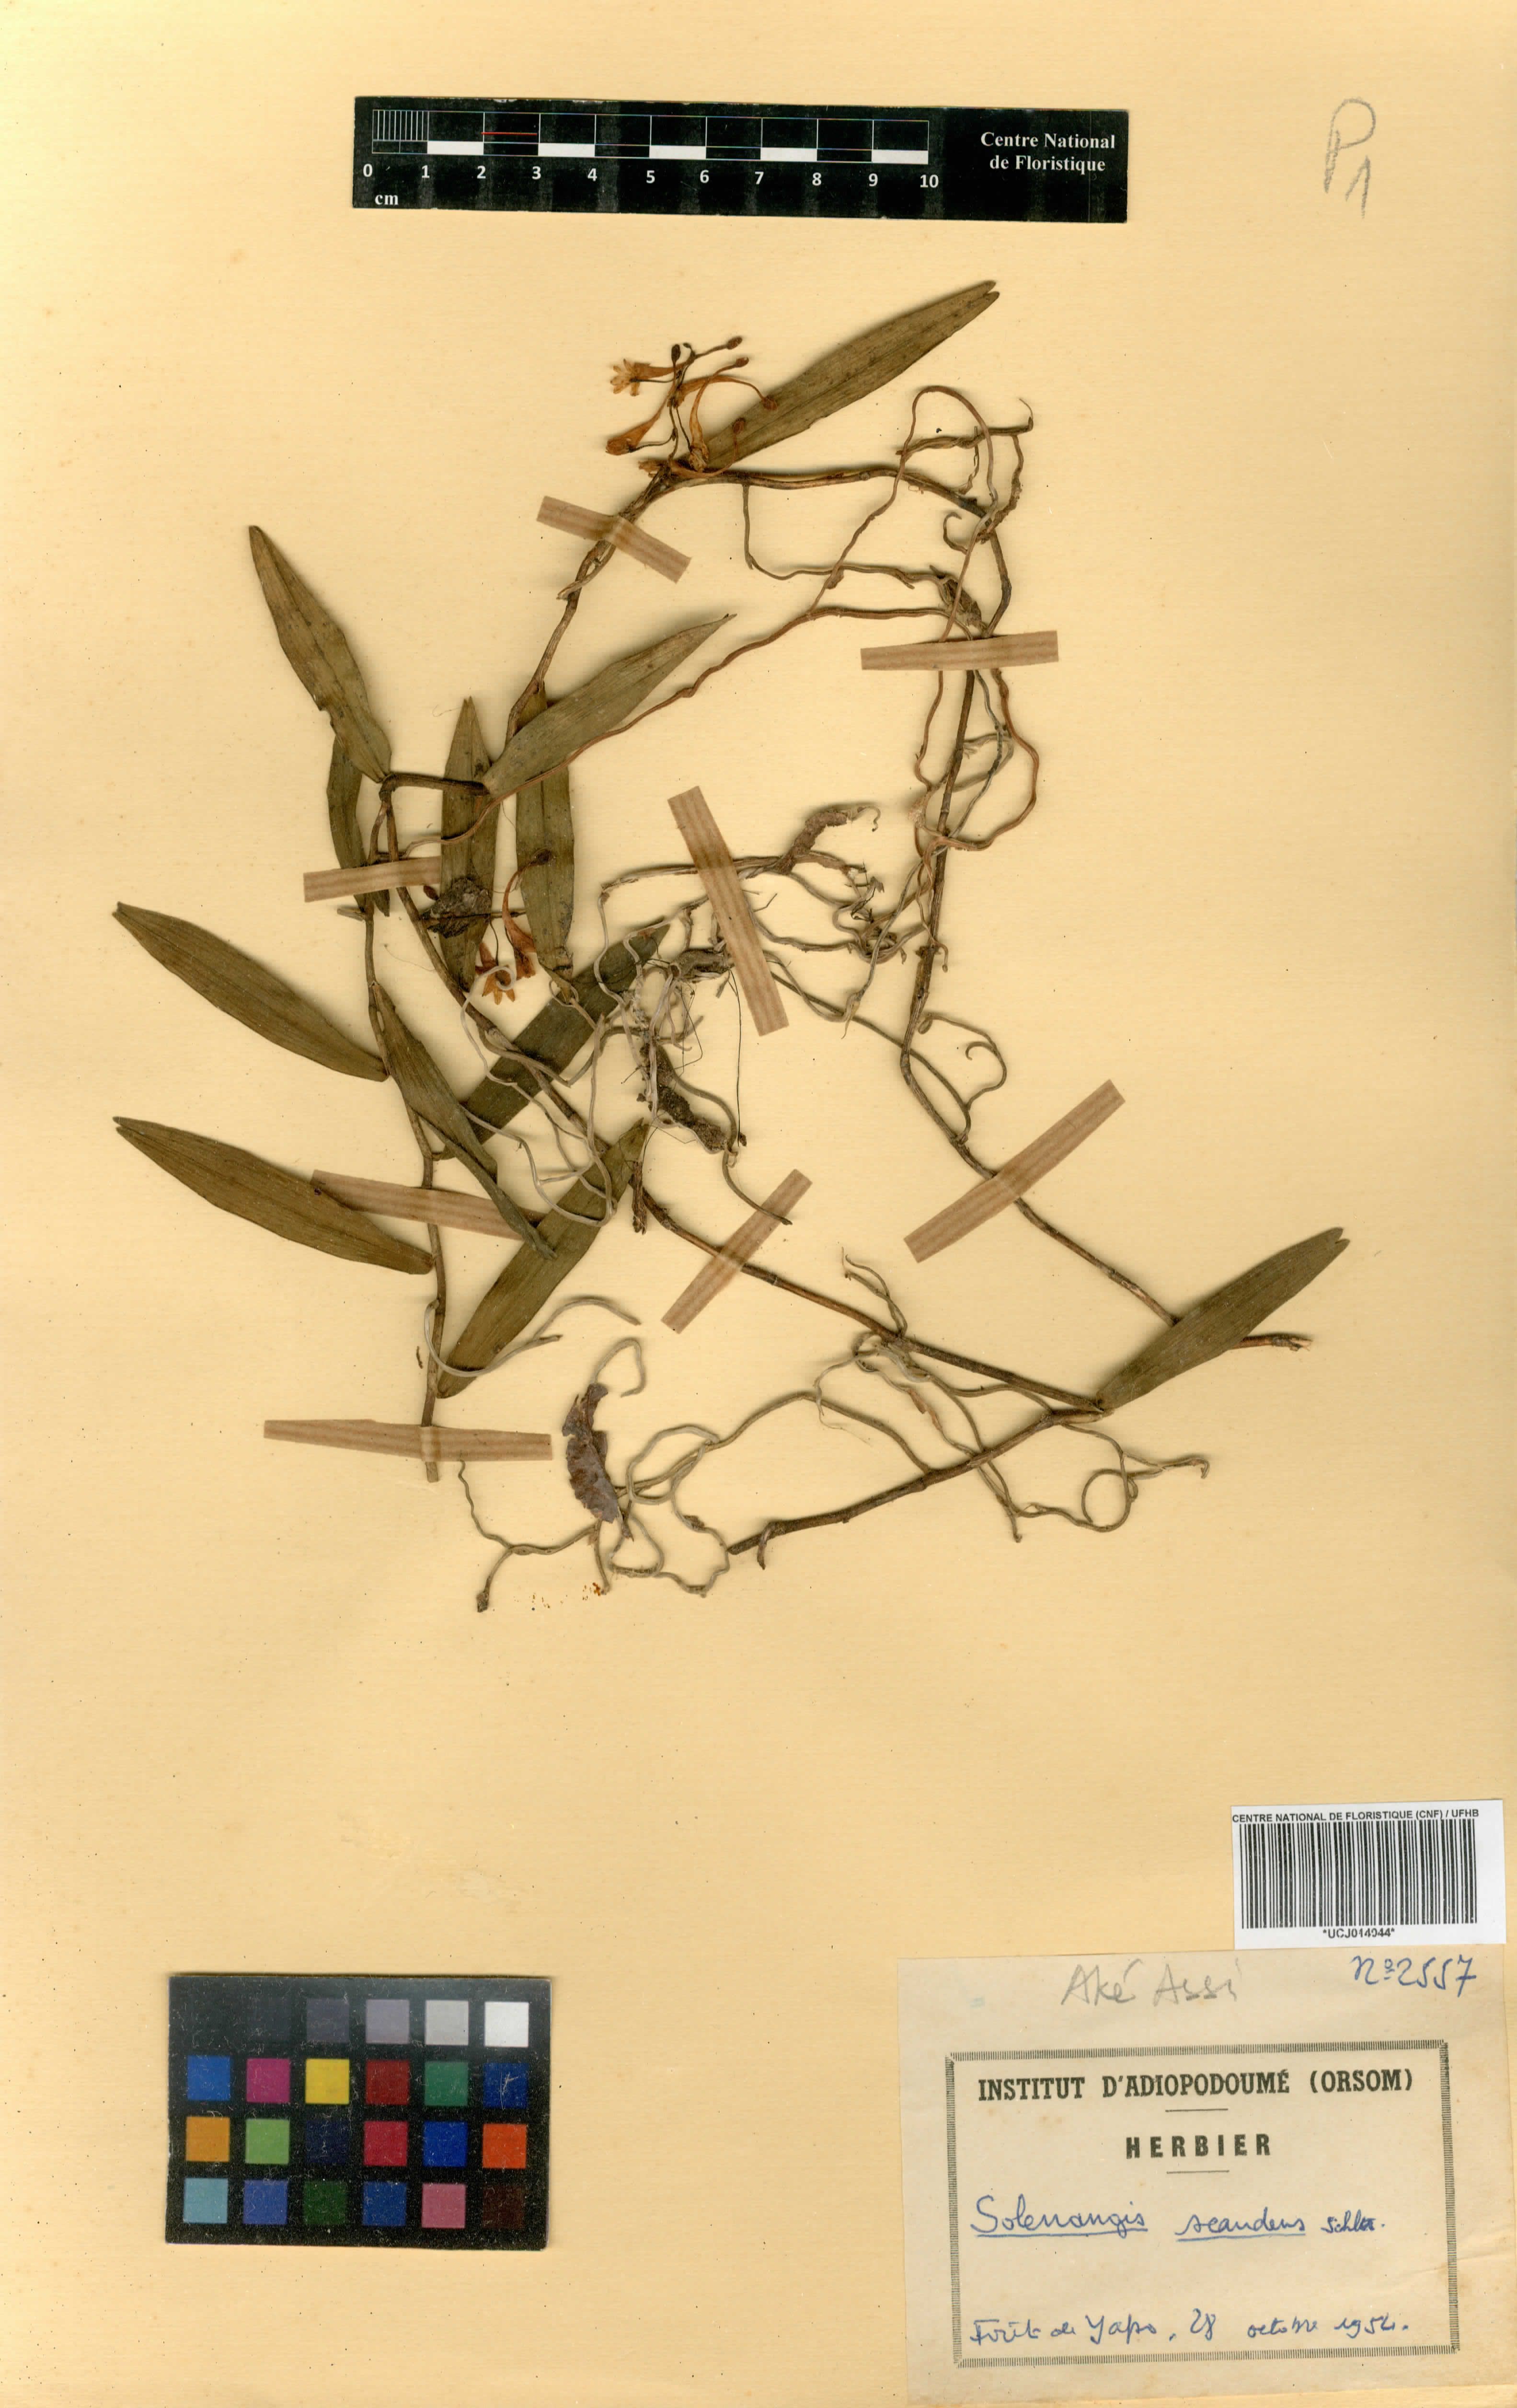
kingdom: Plantae
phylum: Tracheophyta
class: Liliopsida
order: Asparagales
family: Orchidaceae
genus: Solenangis
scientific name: Solenangis scandens
